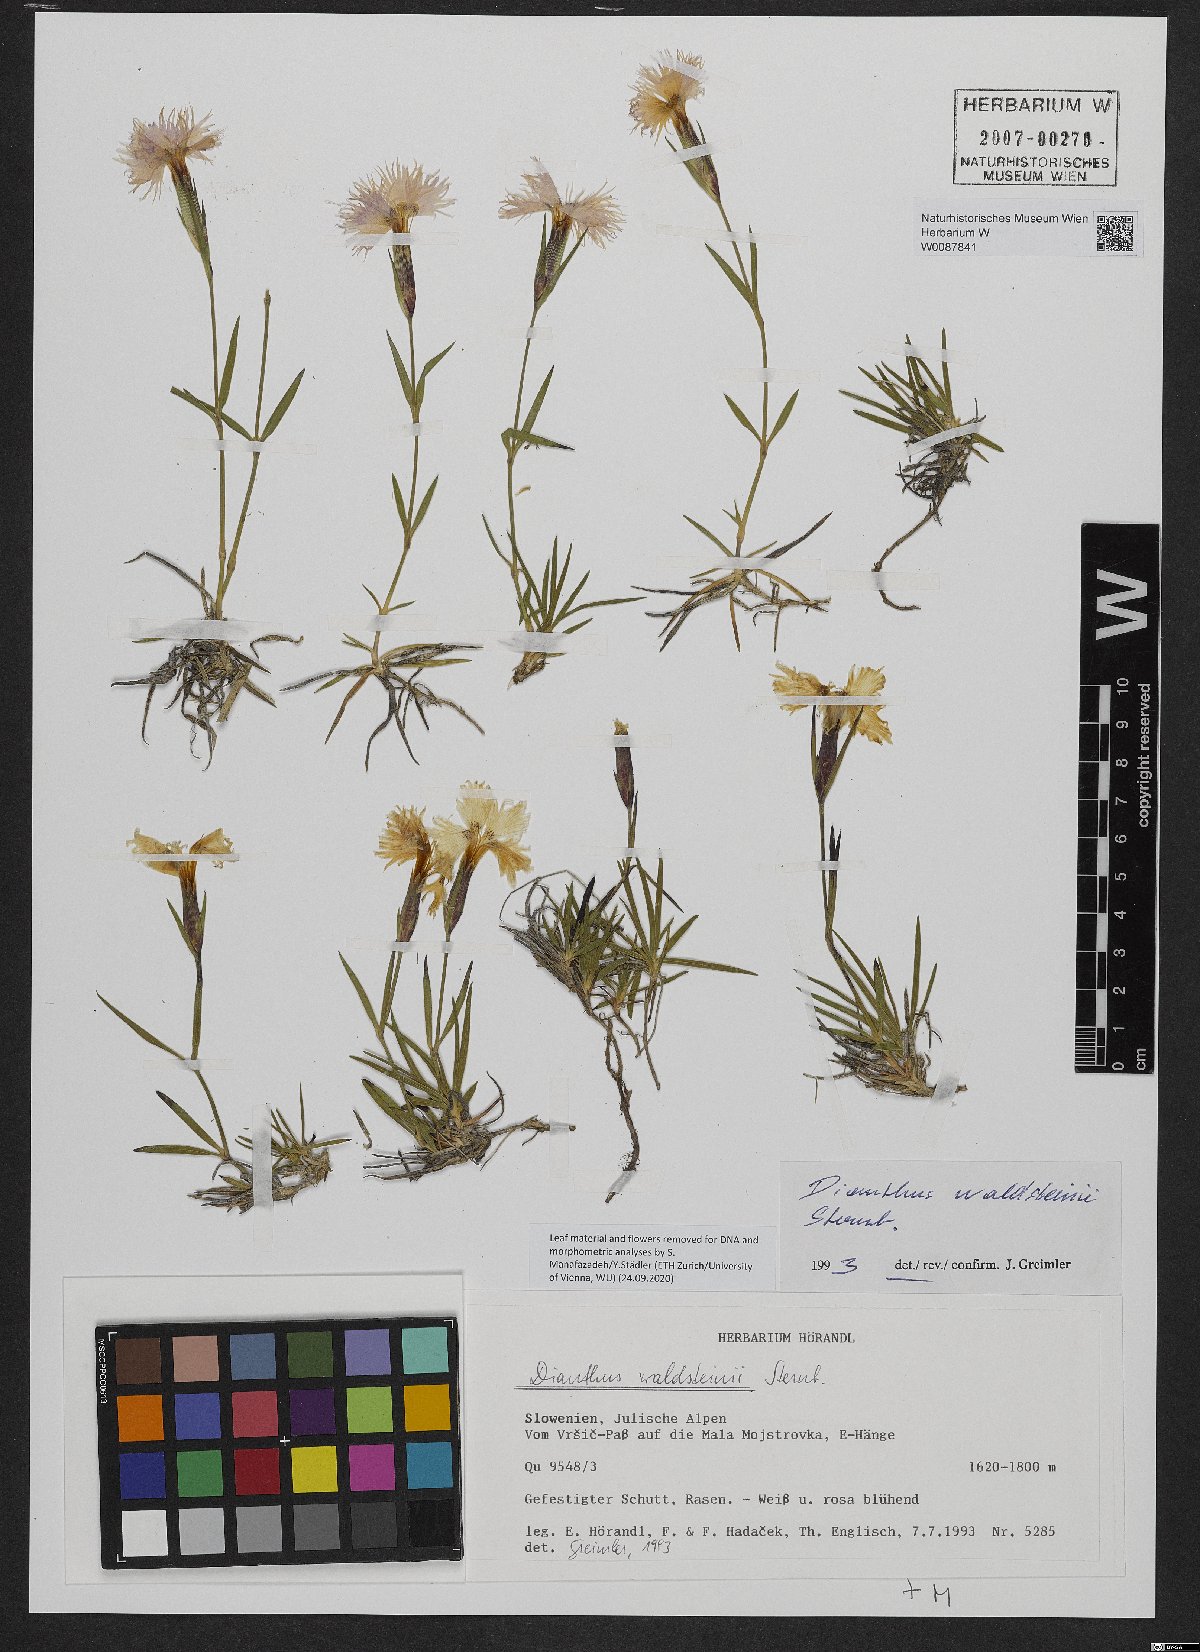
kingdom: Plantae
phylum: Tracheophyta
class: Magnoliopsida
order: Caryophyllales
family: Caryophyllaceae
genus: Dianthus
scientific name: Dianthus sternbergii
